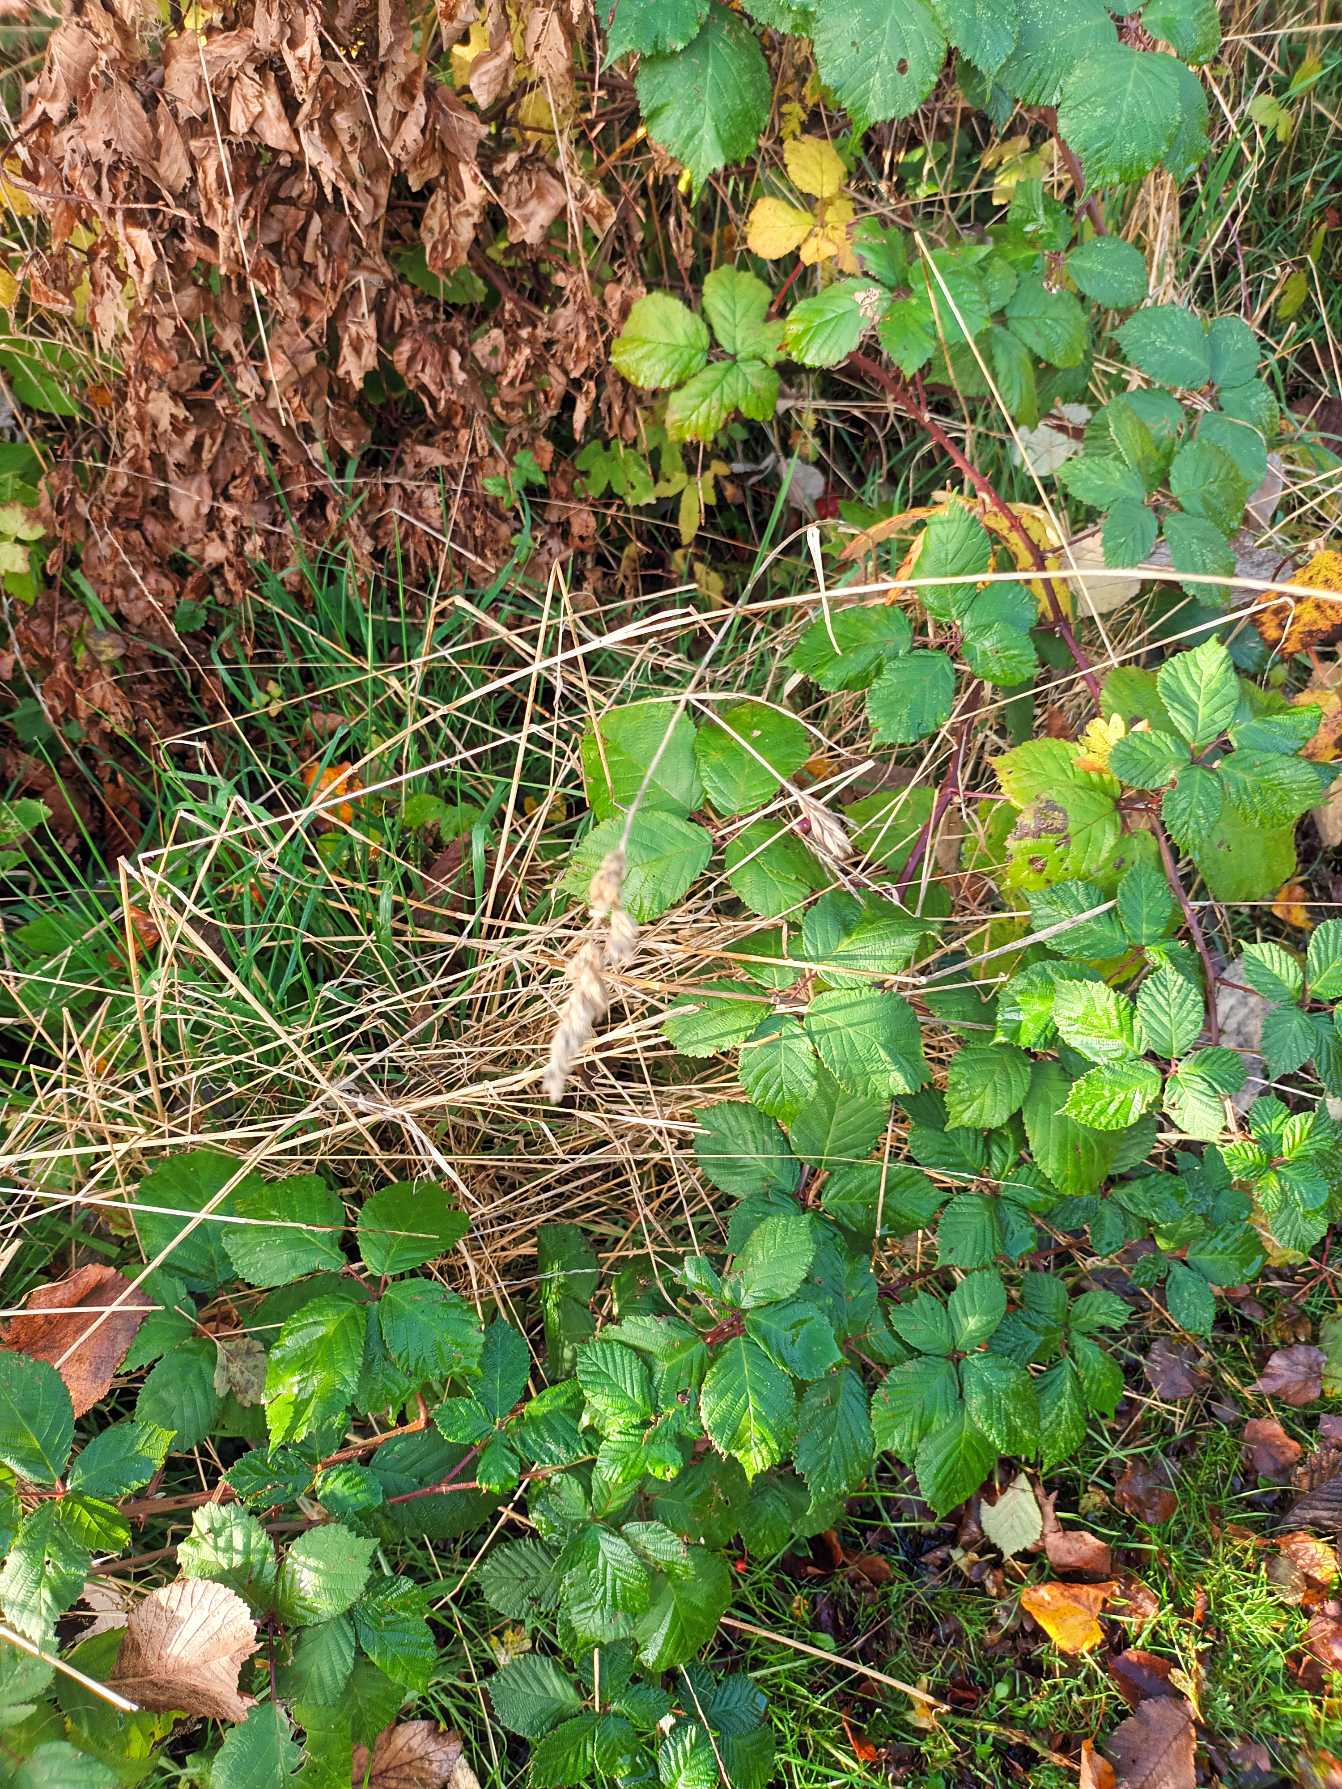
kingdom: Plantae
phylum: Tracheophyta
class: Liliopsida
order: Poales
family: Poaceae
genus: Dactylis
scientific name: Dactylis glomerata
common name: Almindelig hundegræs
